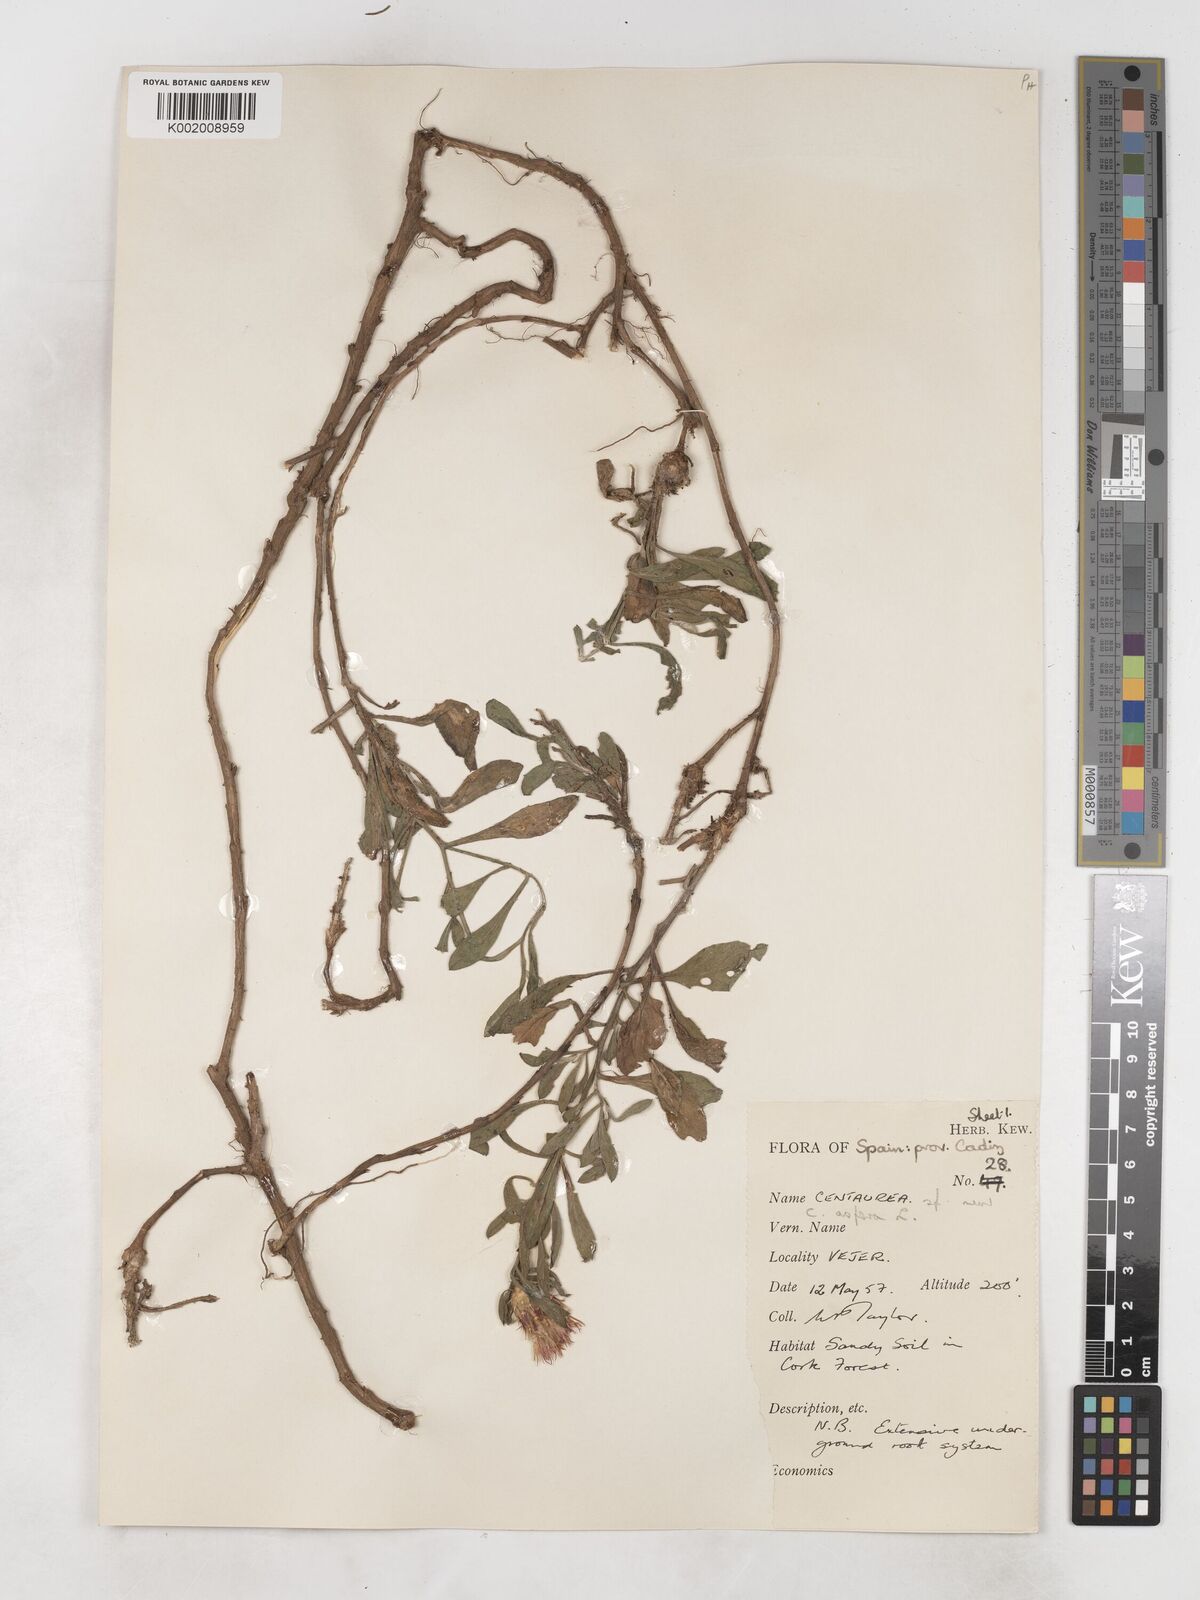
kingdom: Plantae
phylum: Tracheophyta
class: Magnoliopsida
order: Asterales
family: Asteraceae
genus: Centaurea
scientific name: Centaurea aspera
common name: Rough star-thistle
